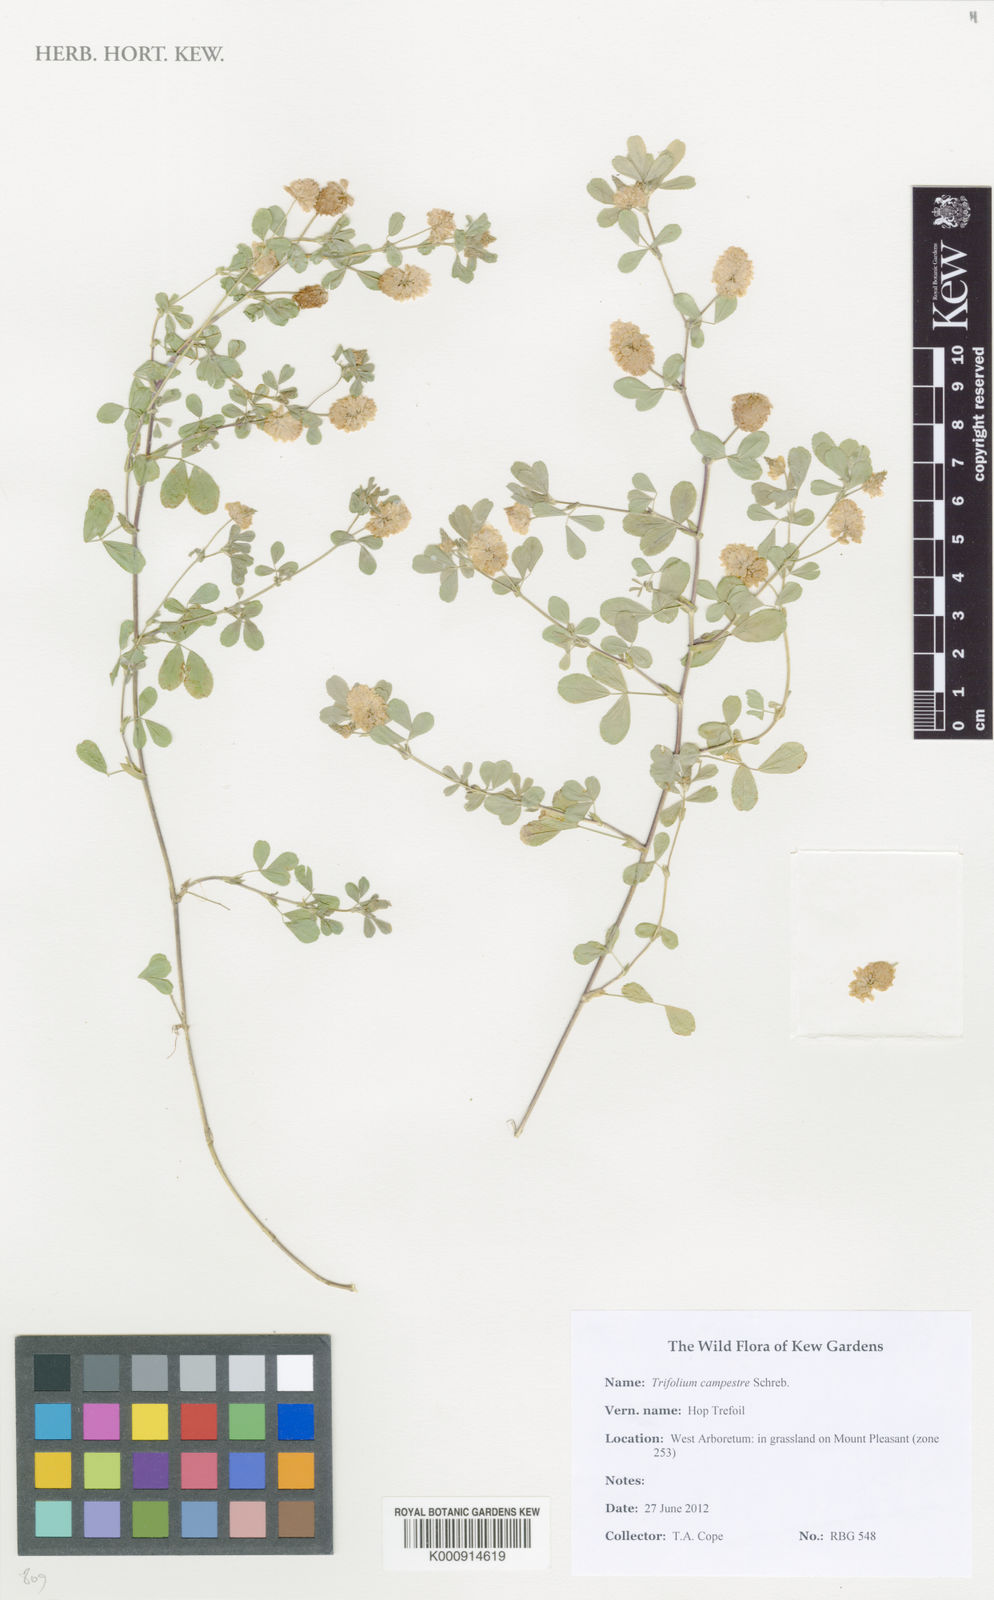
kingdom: Plantae
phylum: Tracheophyta
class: Magnoliopsida
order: Fabales
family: Fabaceae
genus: Trifolium
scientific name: Trifolium campestre
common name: Field clover
